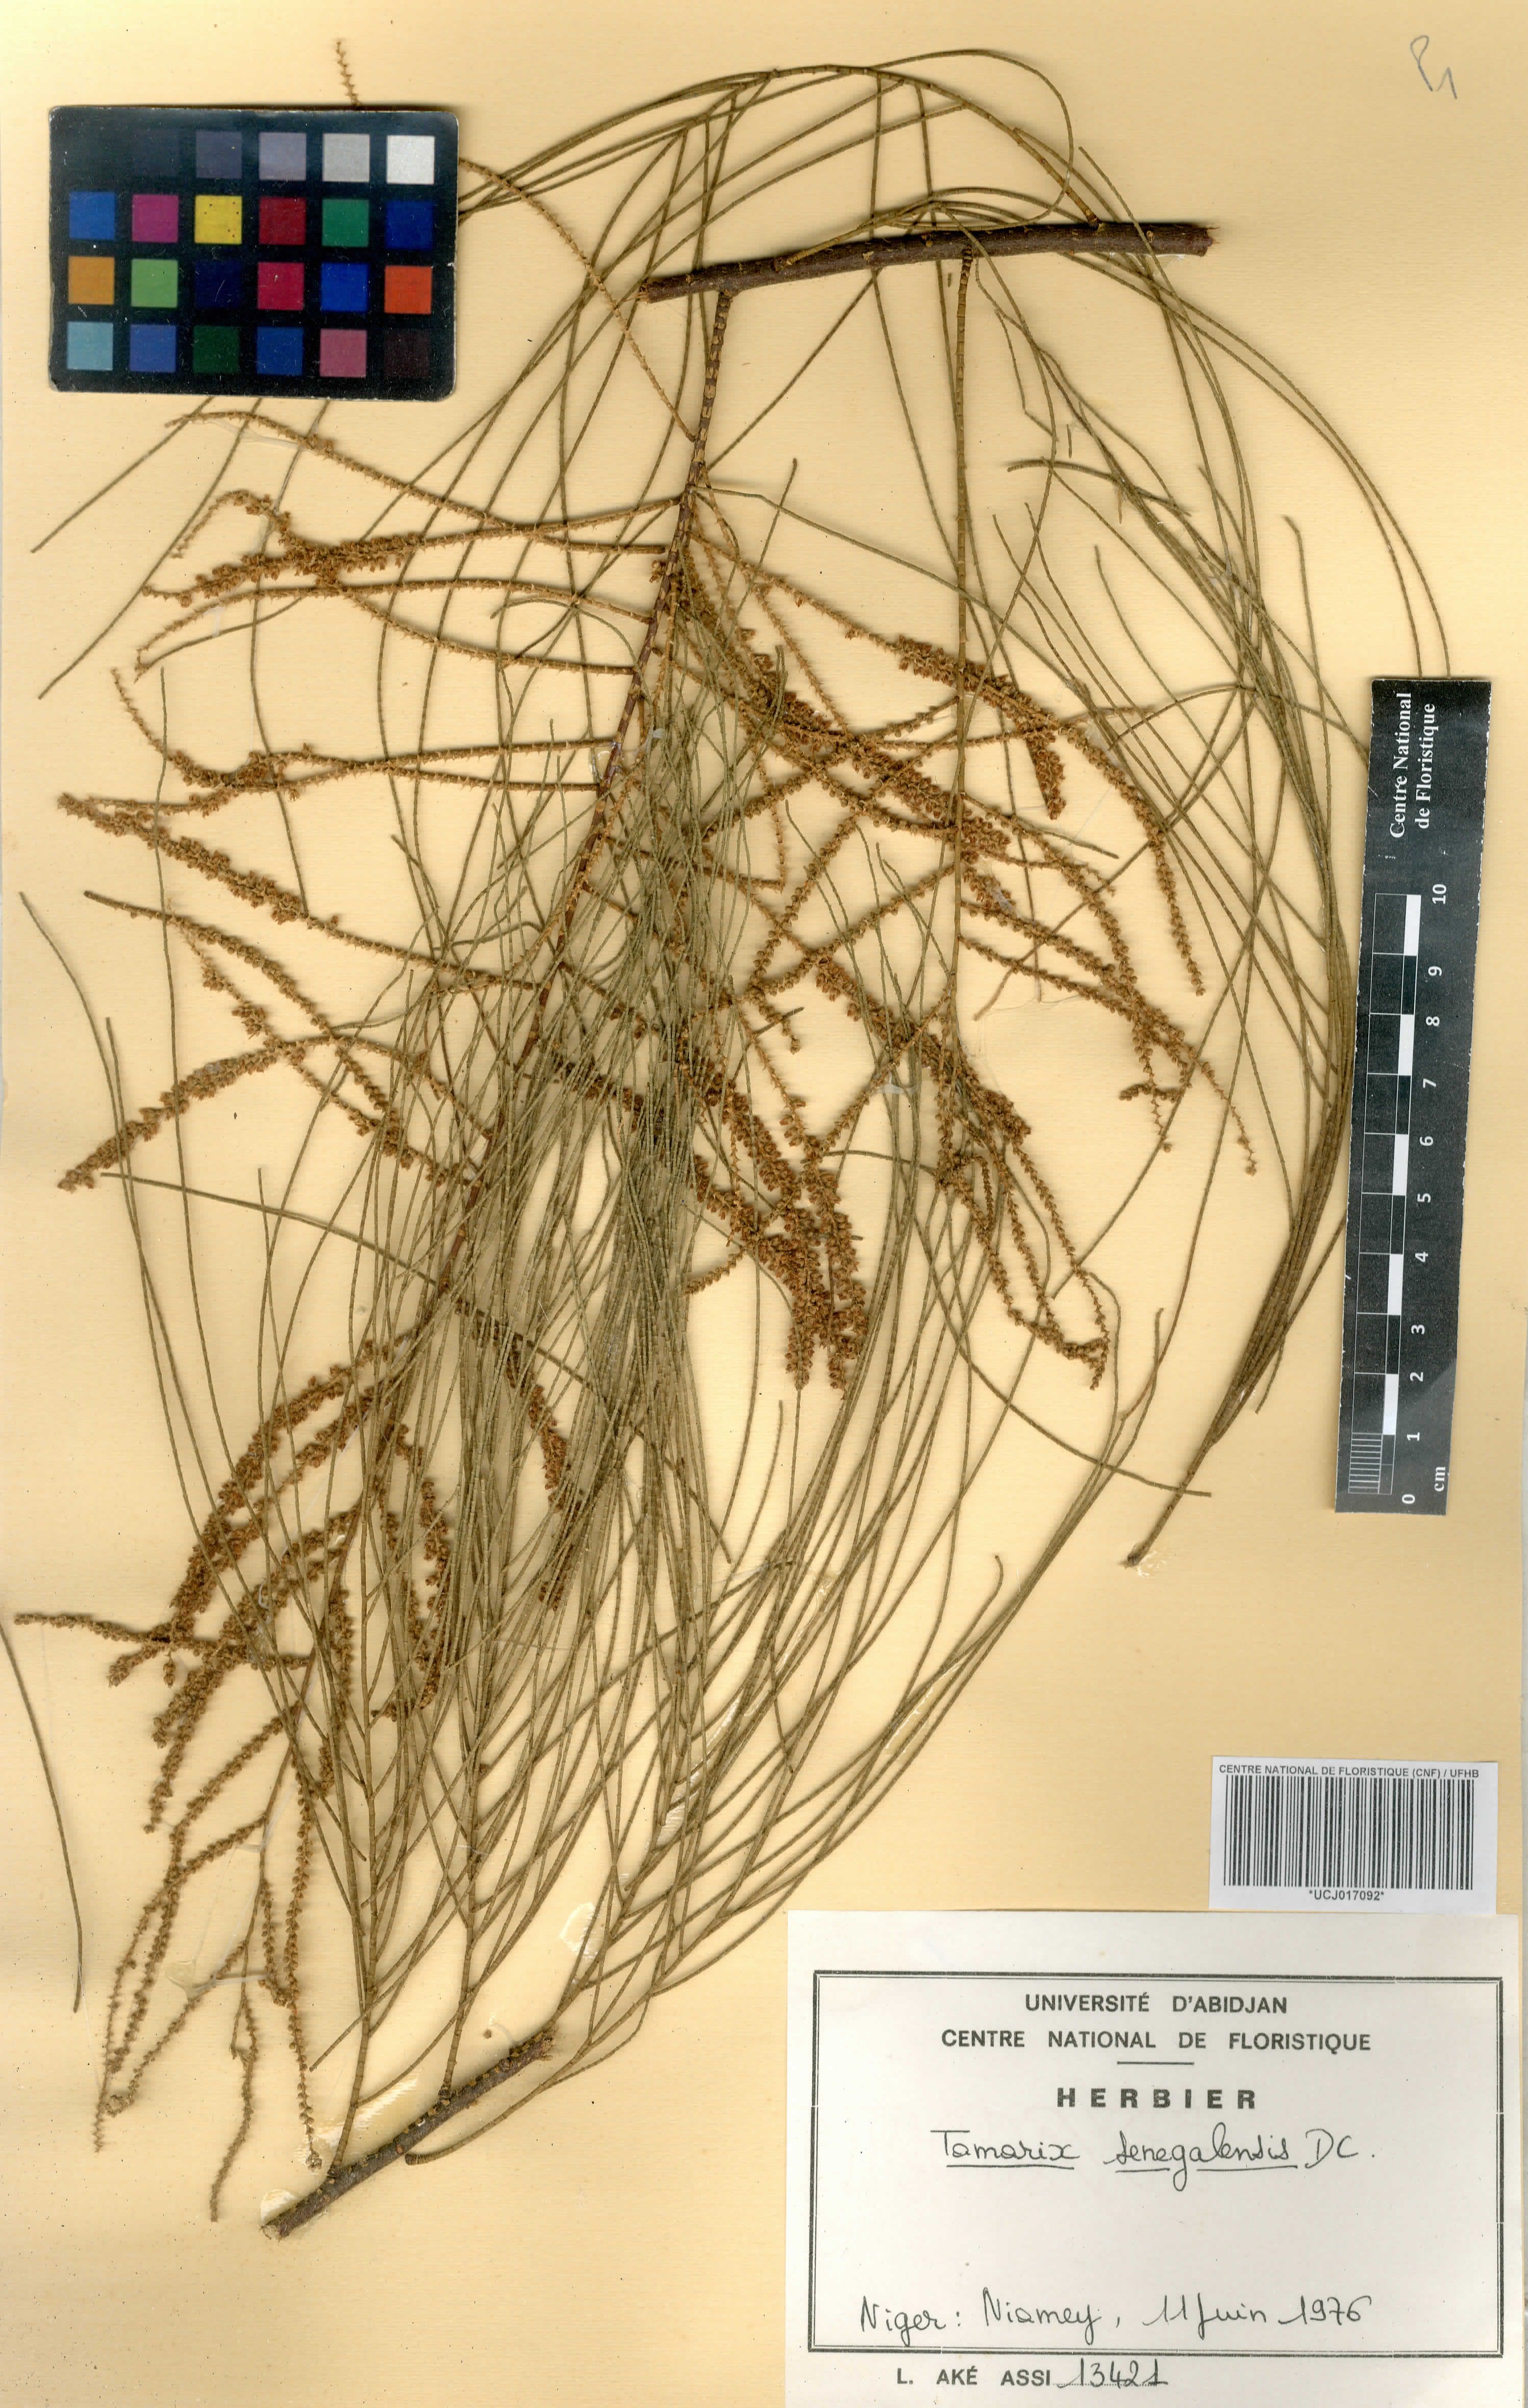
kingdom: Plantae
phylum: Tracheophyta
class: Magnoliopsida
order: Caryophyllales
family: Tamaricaceae
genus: Tamarix
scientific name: Tamarix senegalensis
